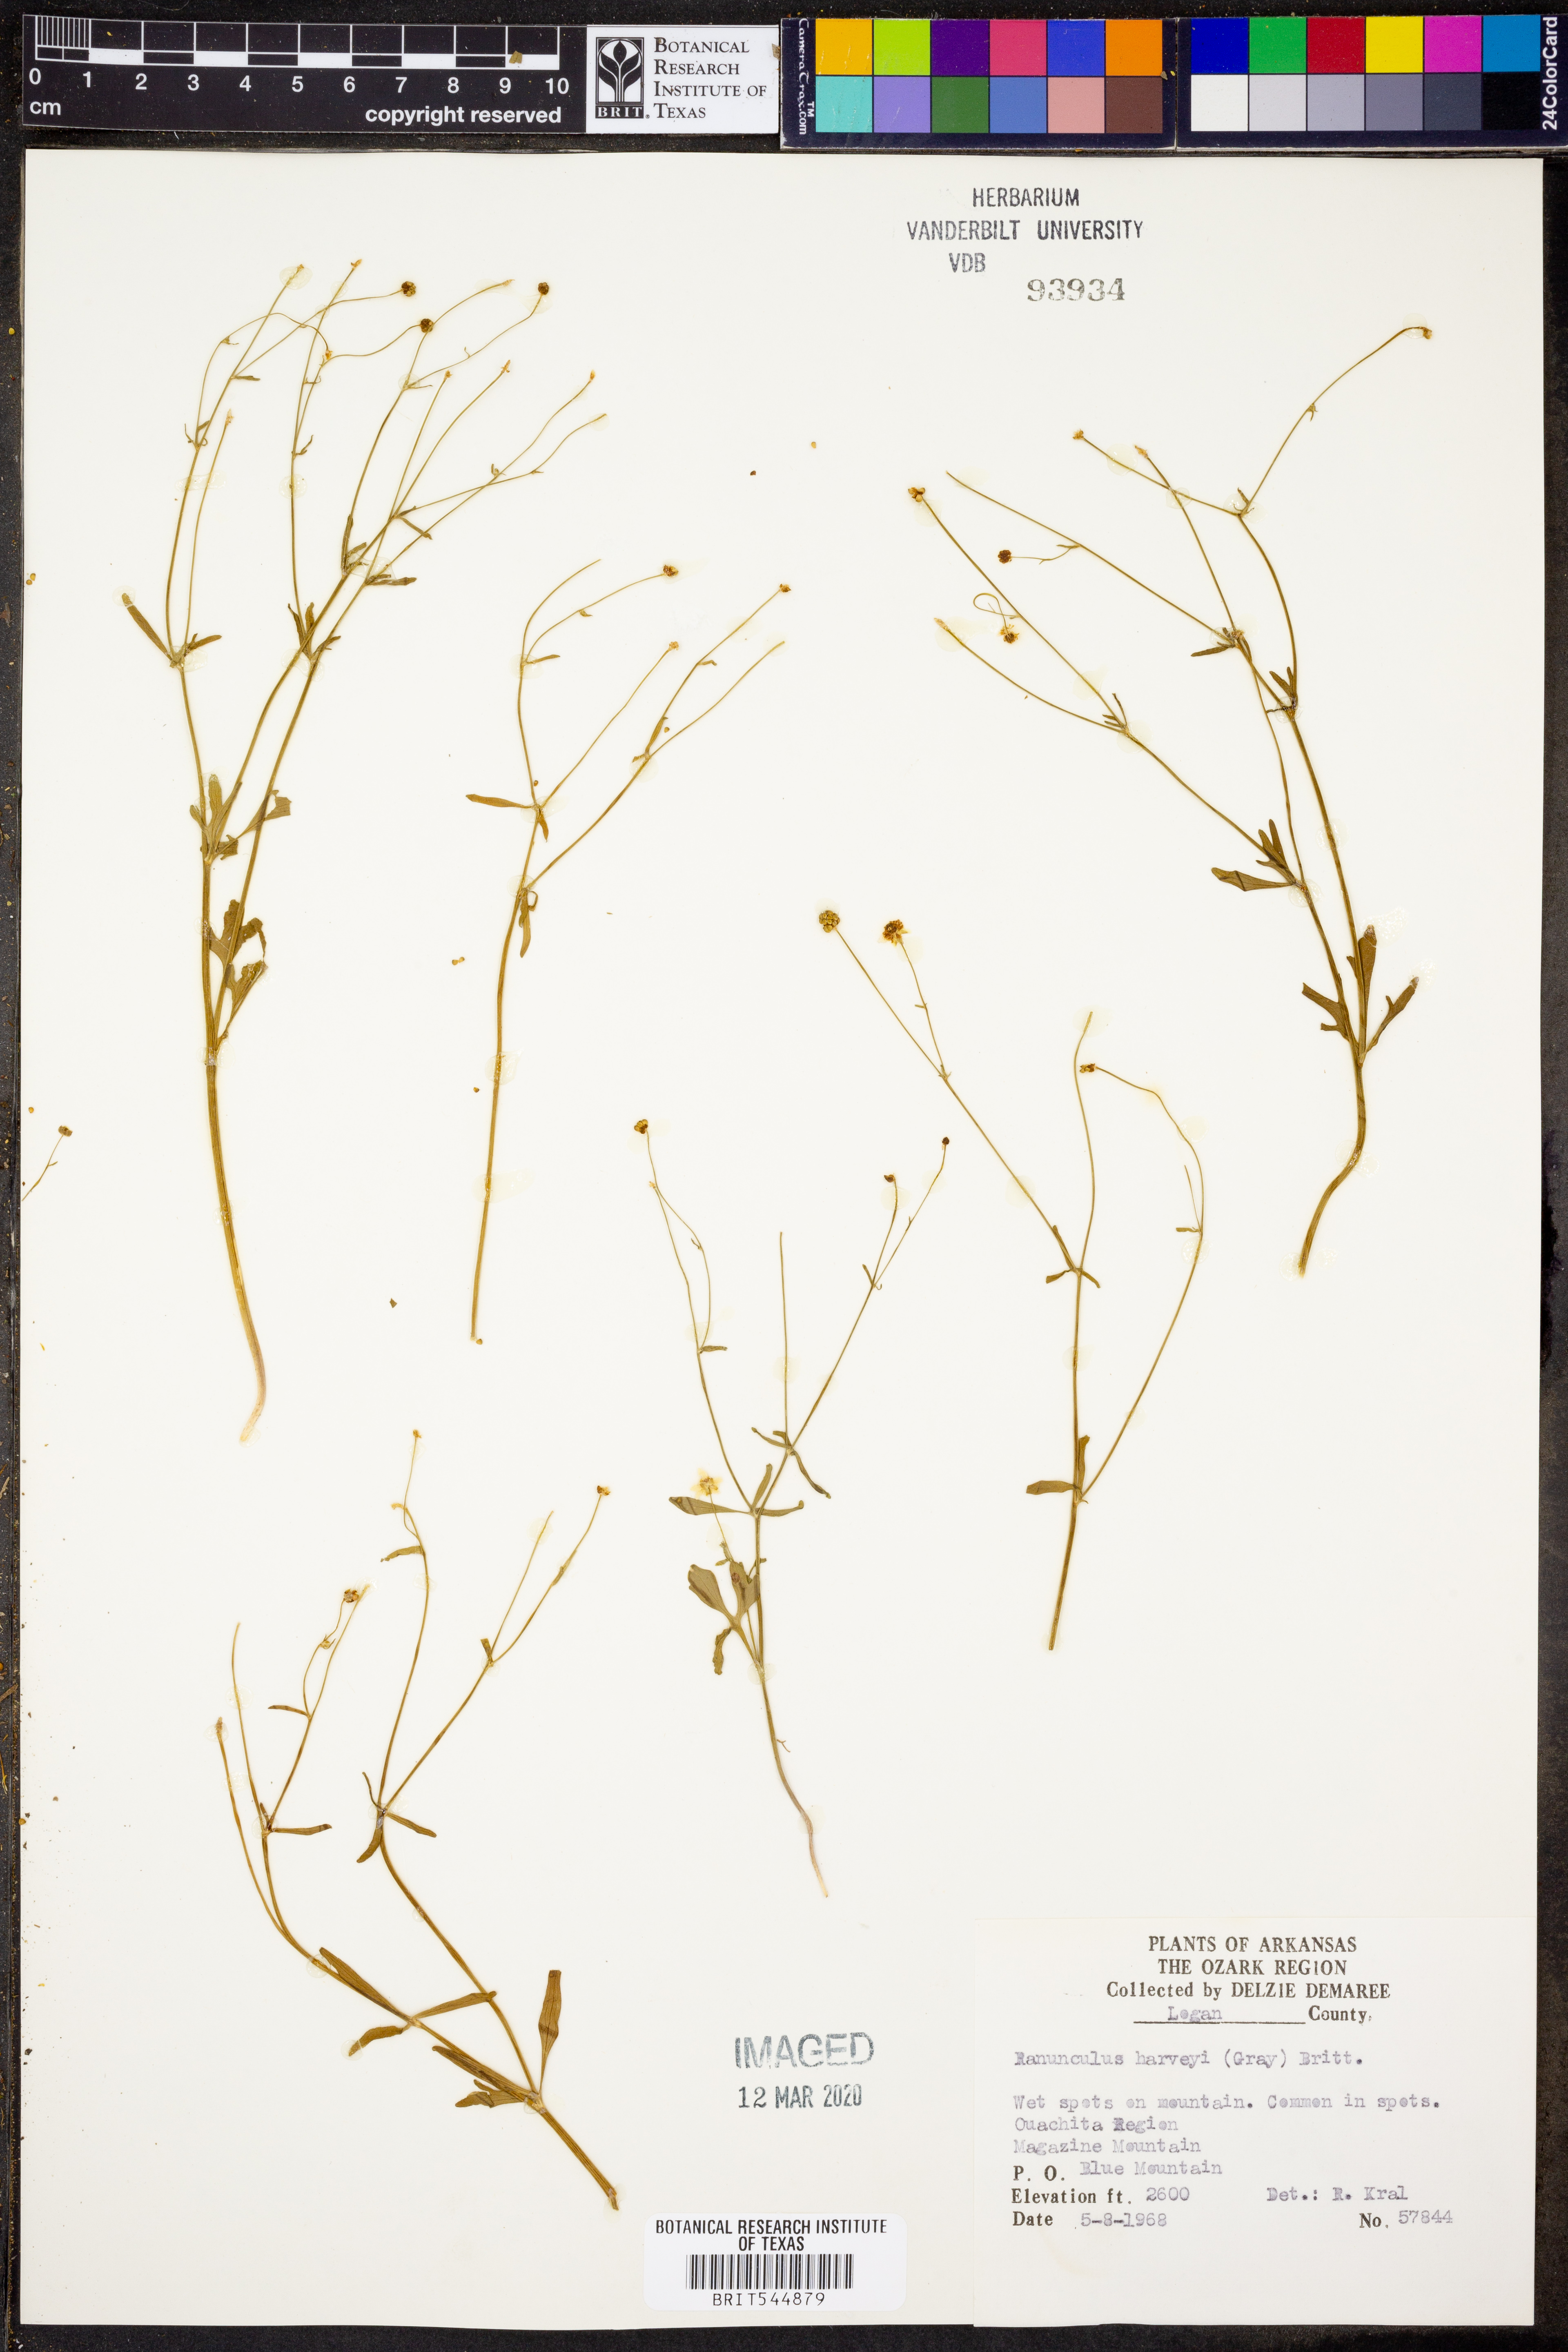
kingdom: Plantae
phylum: Tracheophyta
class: Magnoliopsida
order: Ranunculales
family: Ranunculaceae
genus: Ranunculus
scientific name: Ranunculus harveyi
